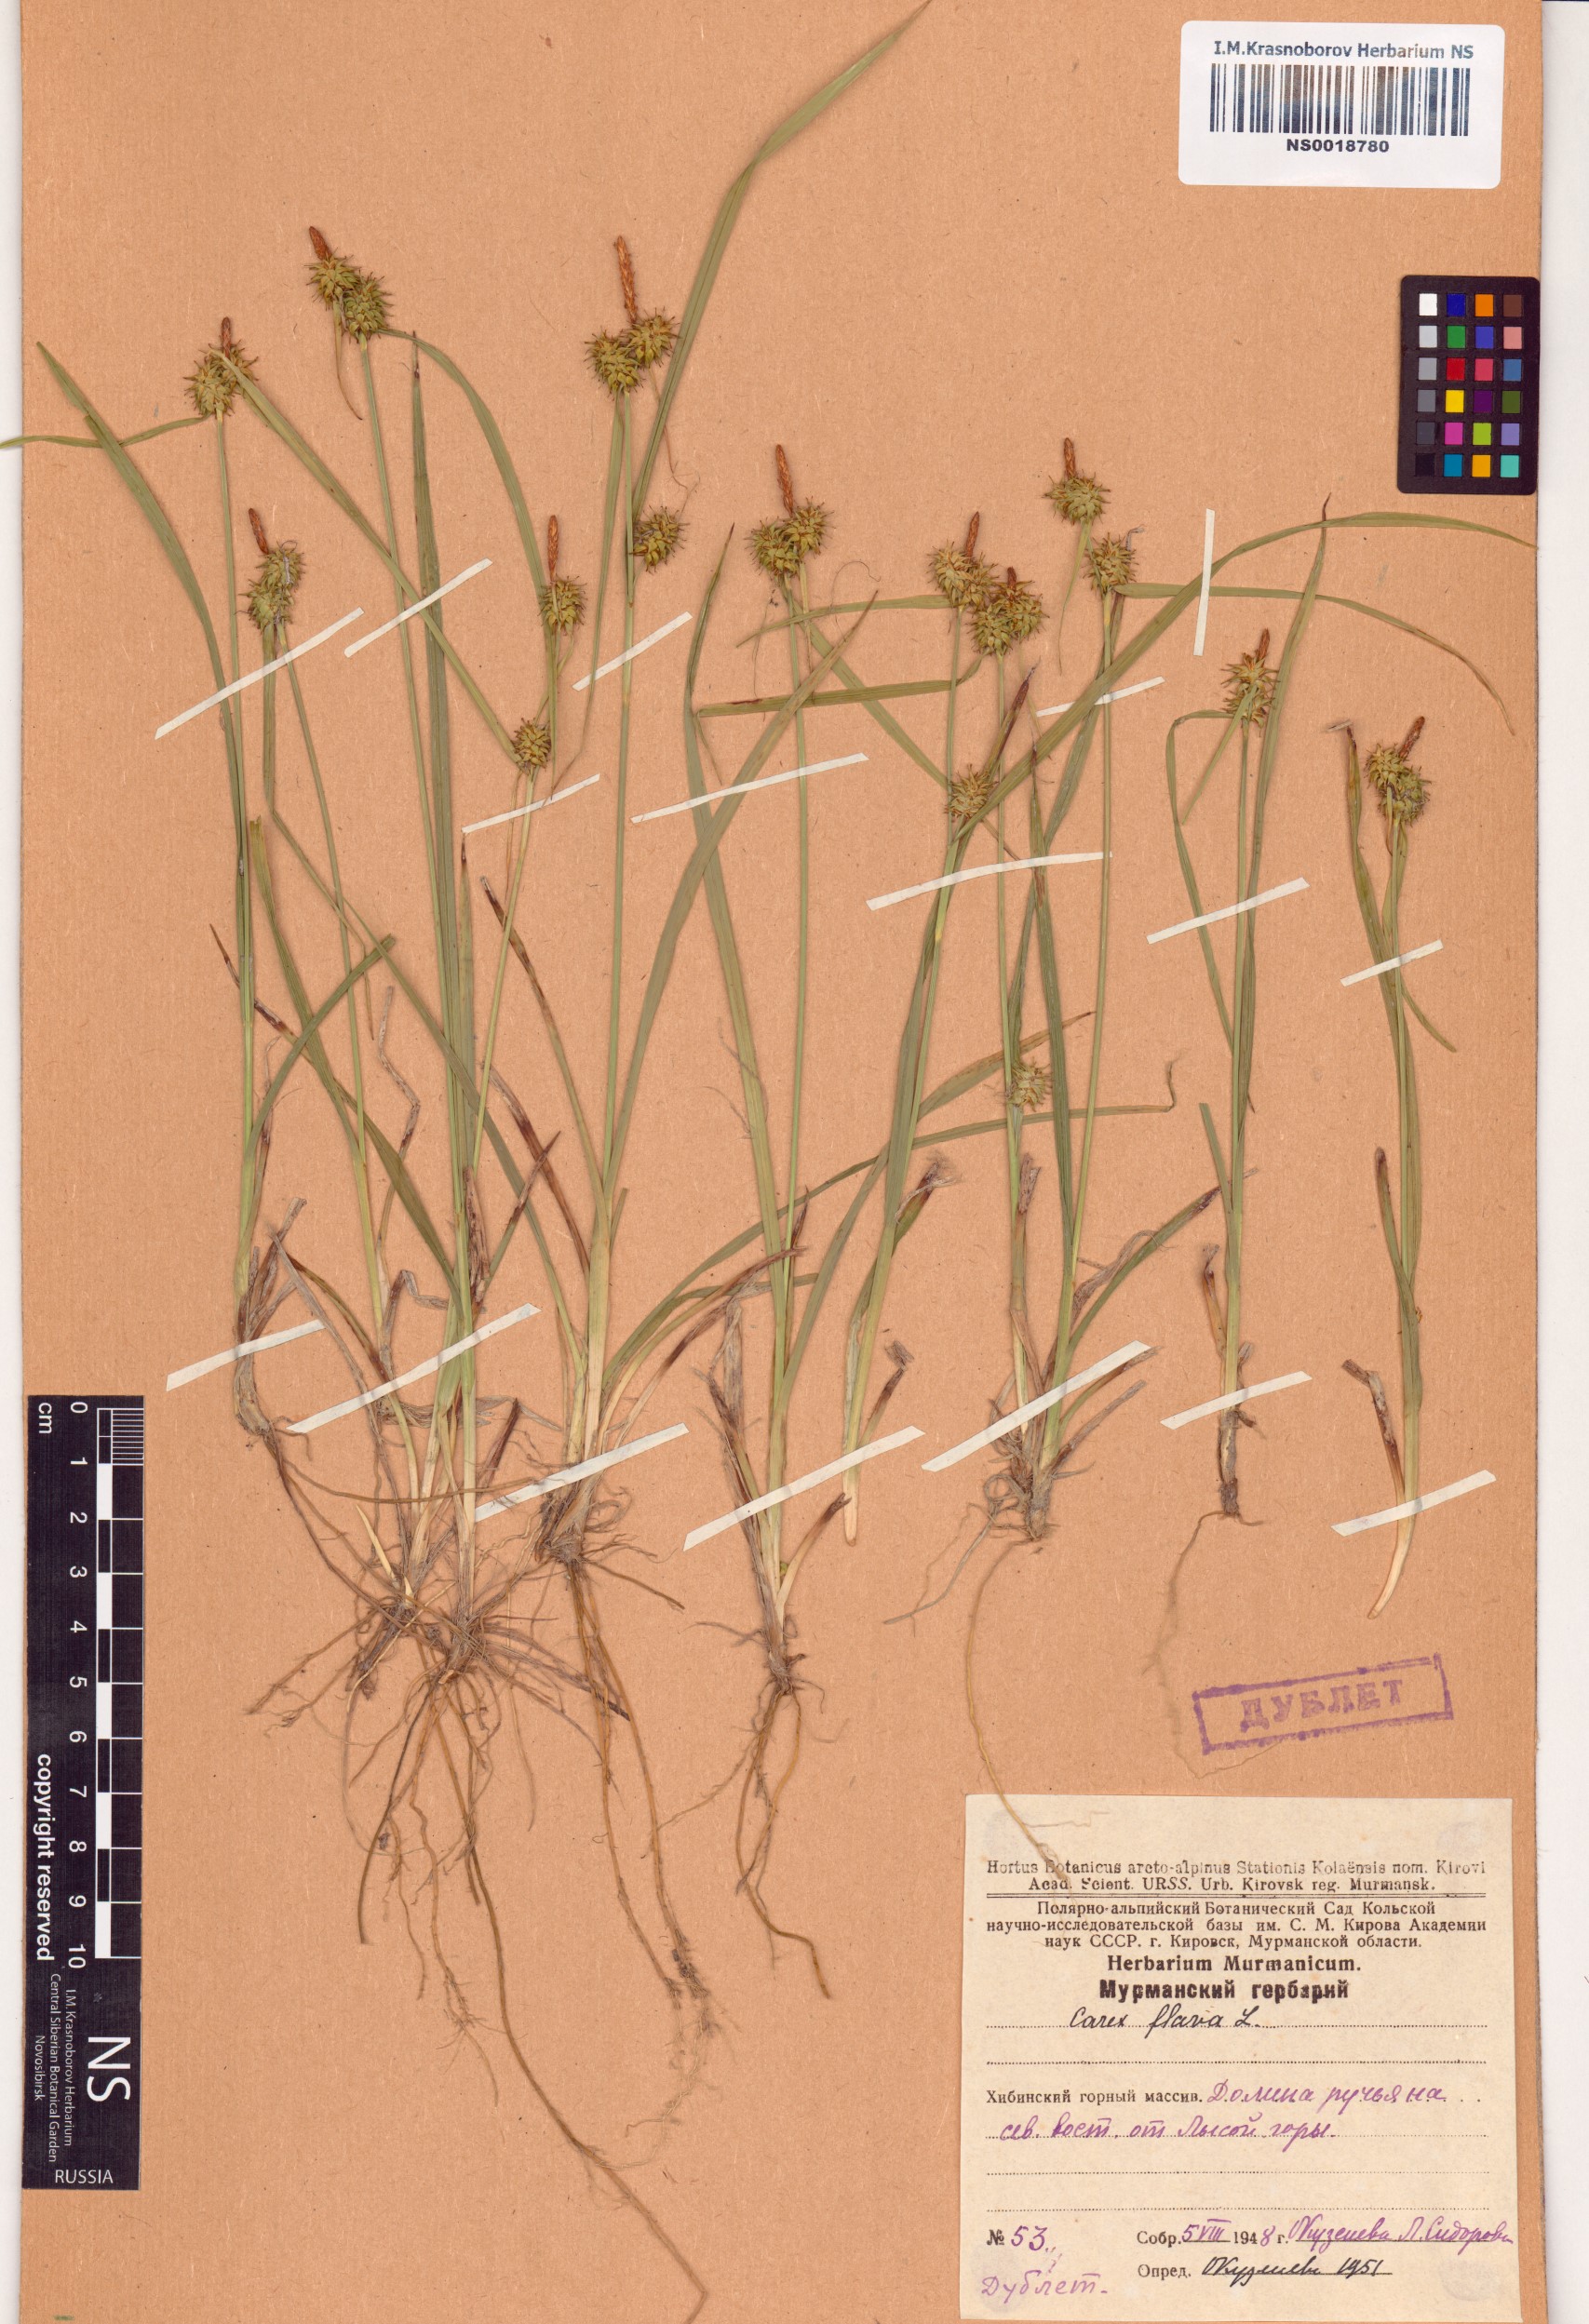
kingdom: Plantae
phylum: Tracheophyta
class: Liliopsida
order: Poales
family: Cyperaceae
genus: Carex
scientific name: Carex flava
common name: Large yellow-sedge
